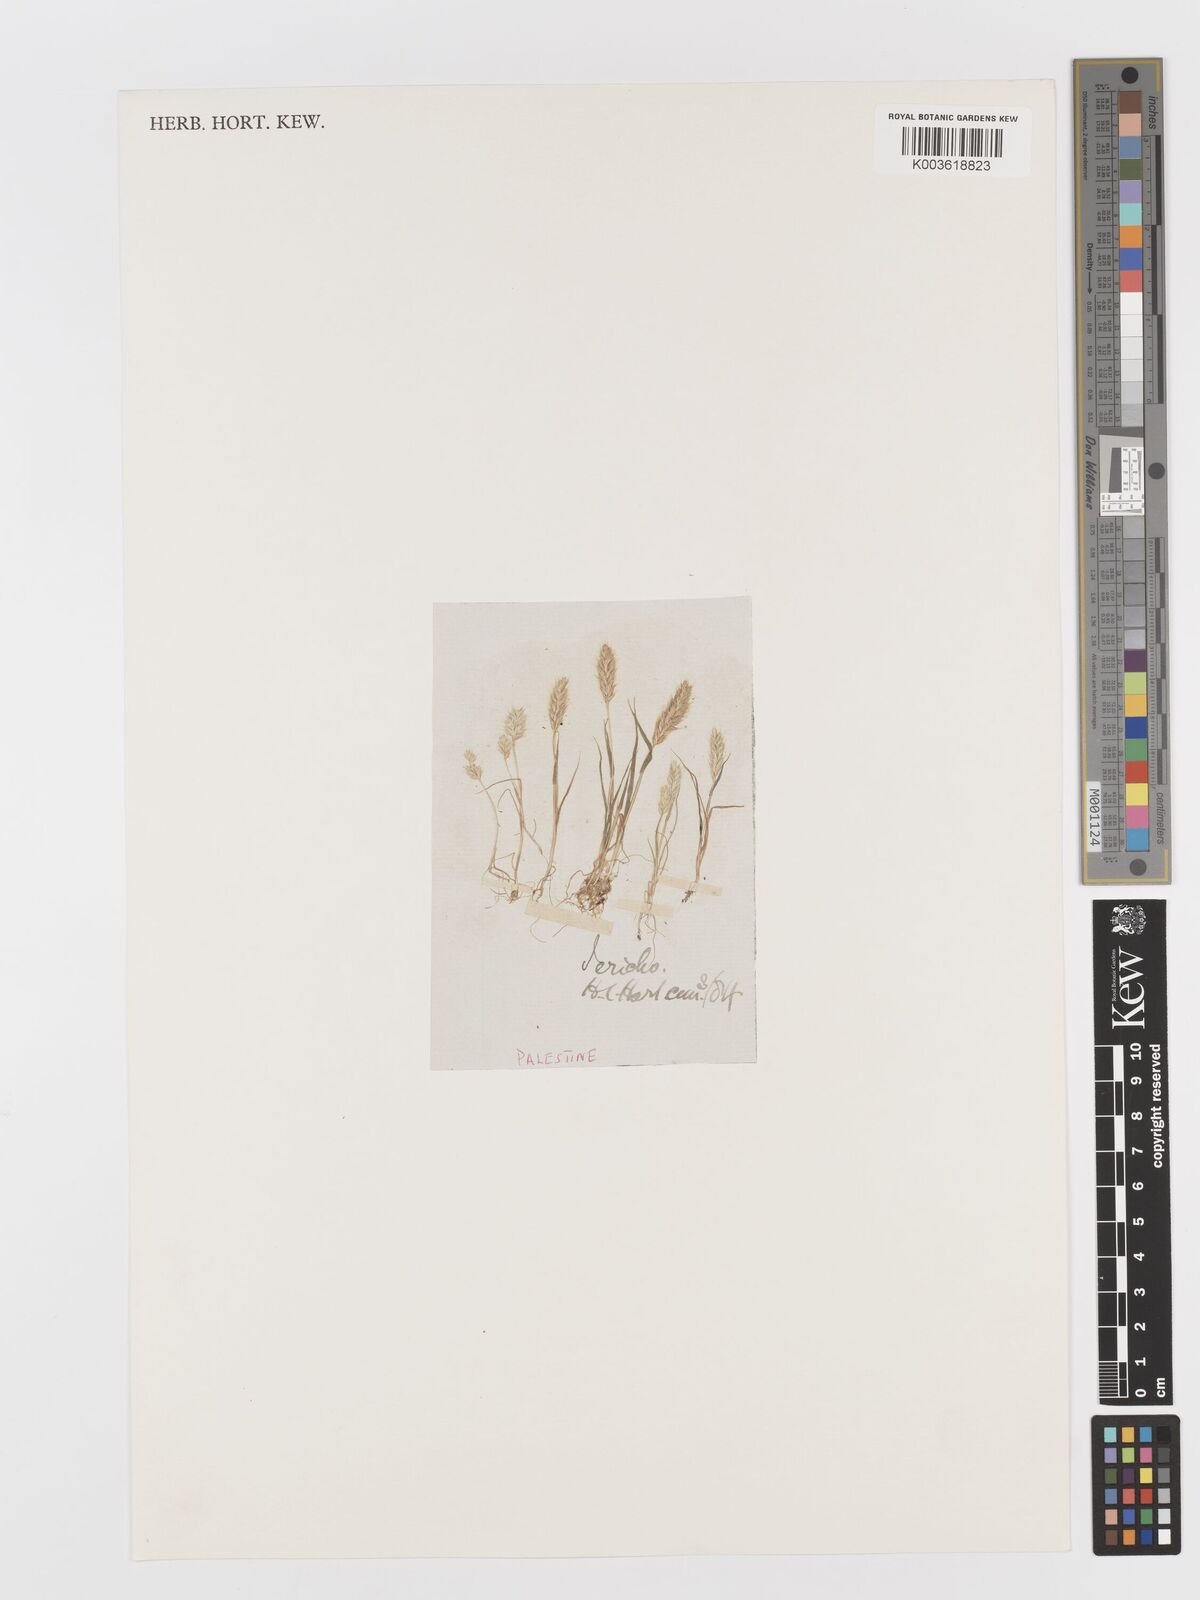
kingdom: Plantae
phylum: Tracheophyta
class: Liliopsida
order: Poales
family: Poaceae
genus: Rostraria
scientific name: Rostraria cristata
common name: Mediterranean hair-grass
